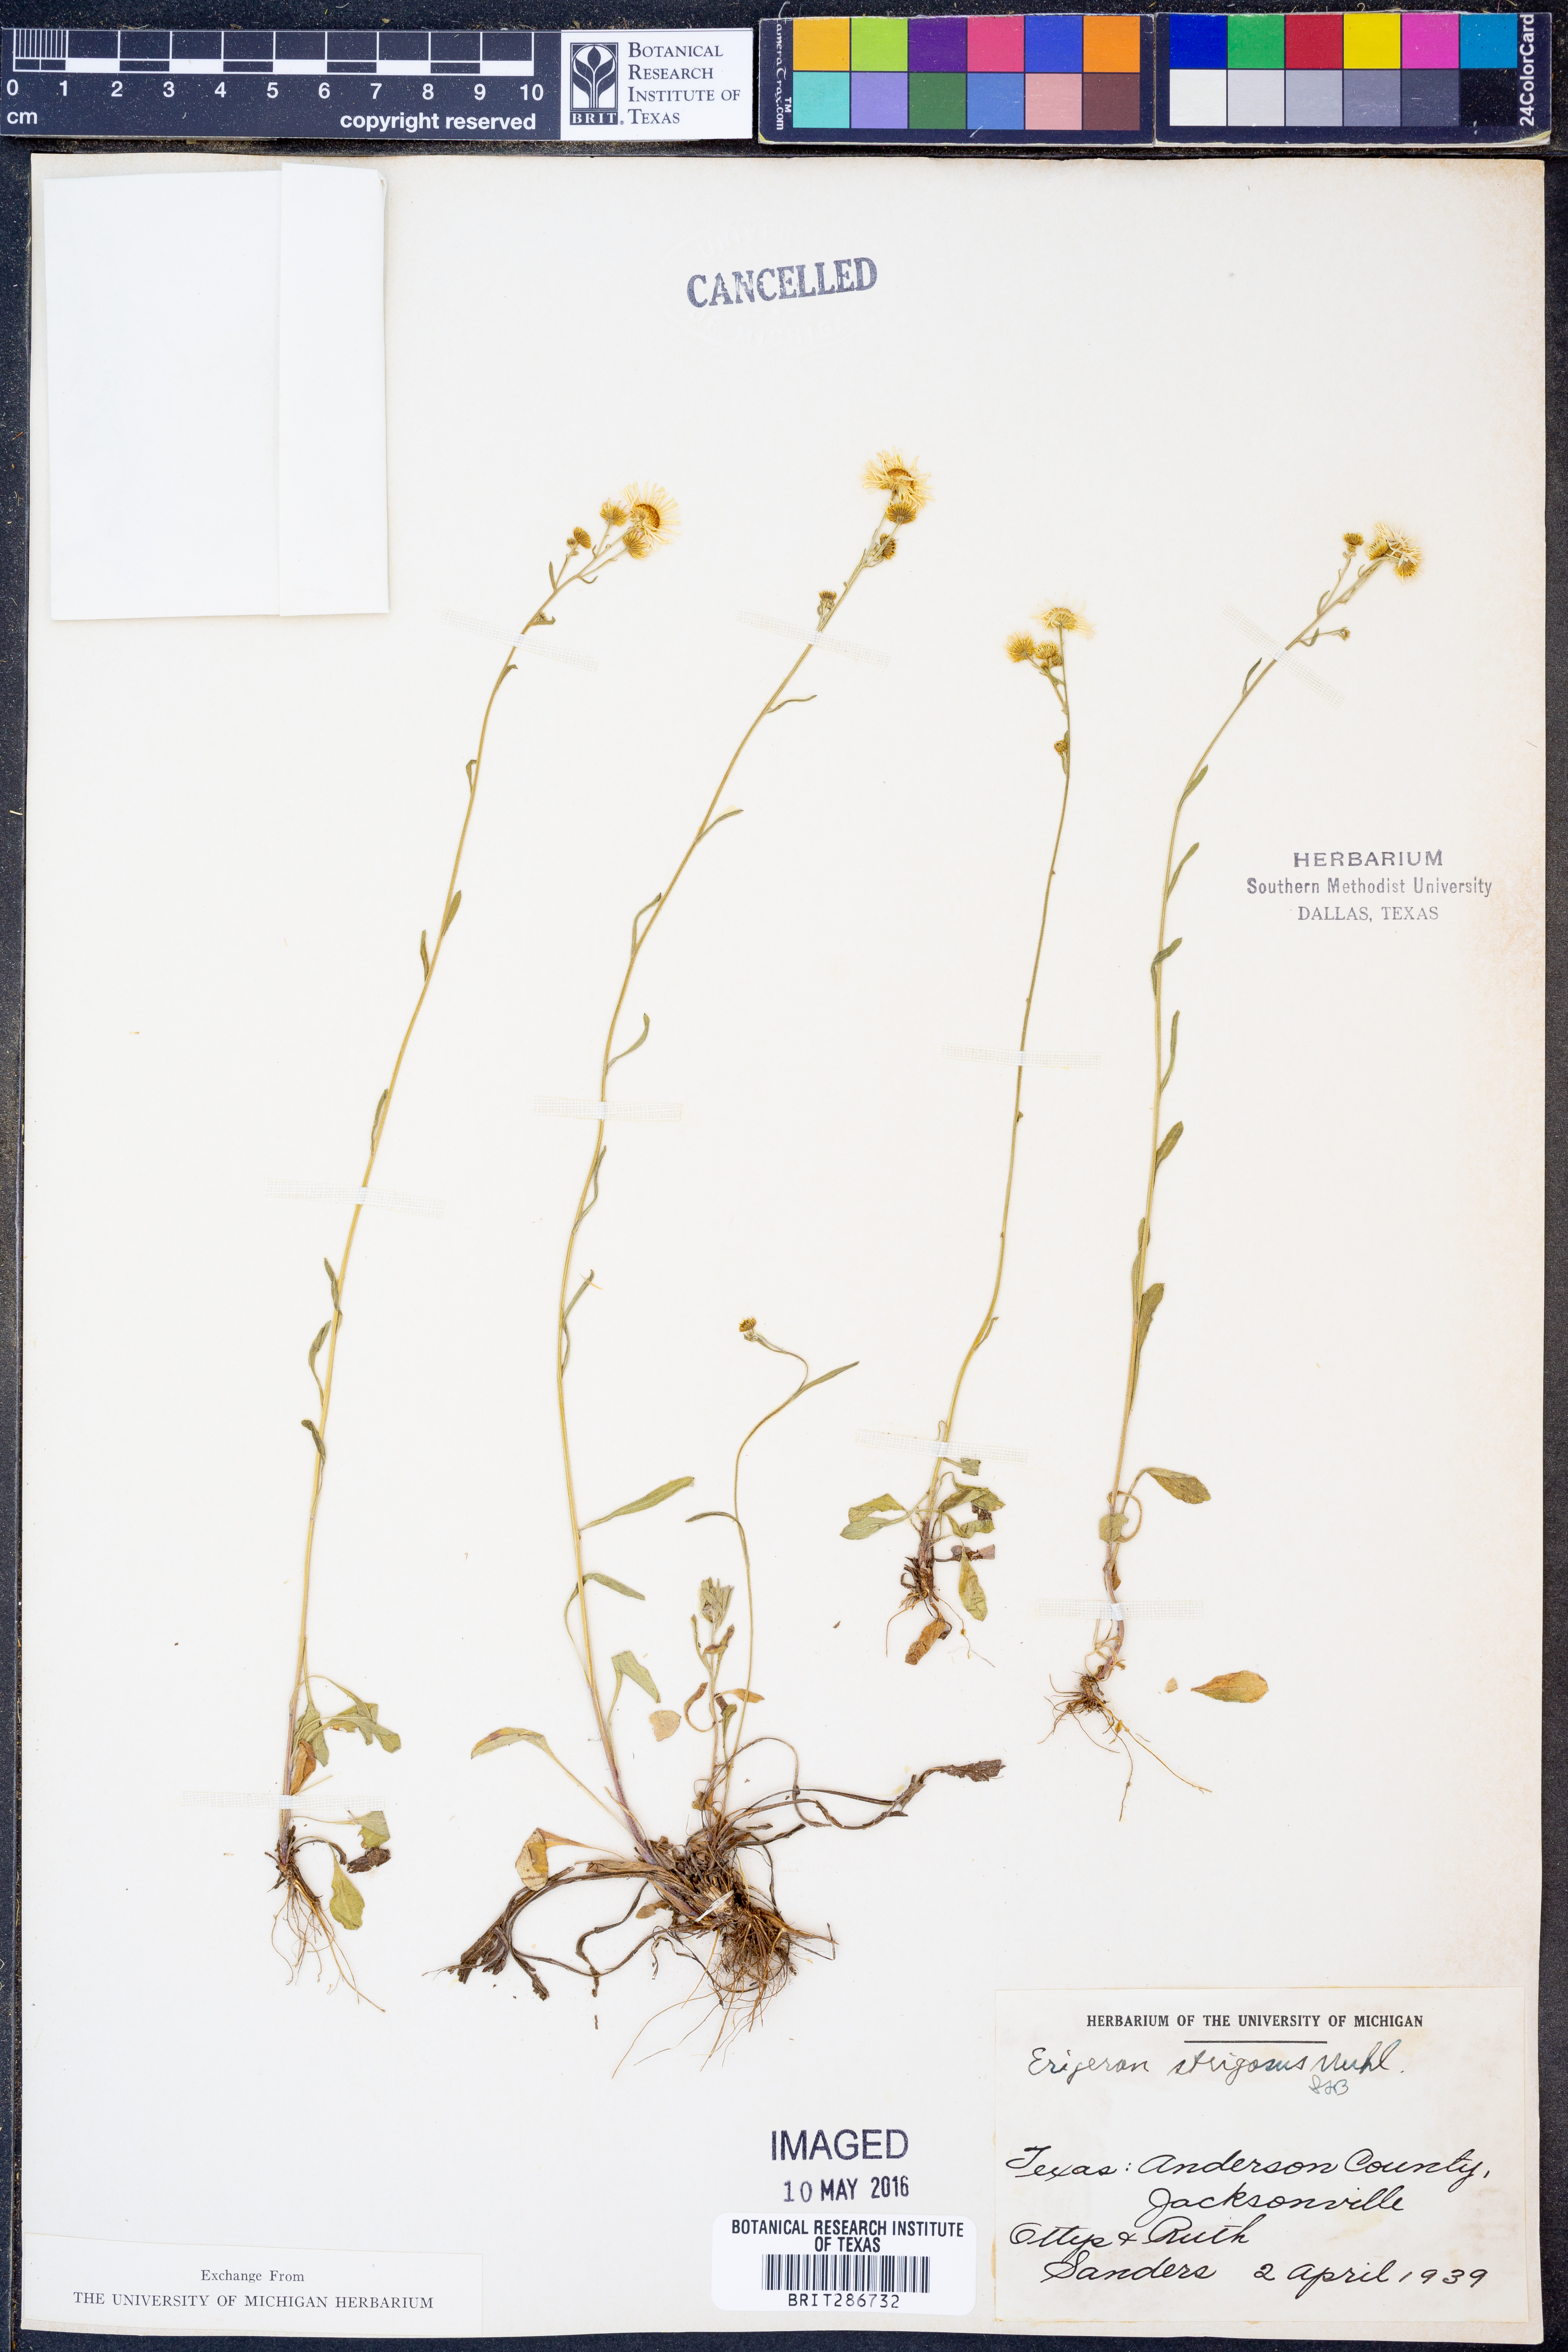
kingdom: Plantae
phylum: Tracheophyta
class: Magnoliopsida
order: Asterales
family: Asteraceae
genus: Erigeron
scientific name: Erigeron strigosus
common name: Common eastern fleabane
